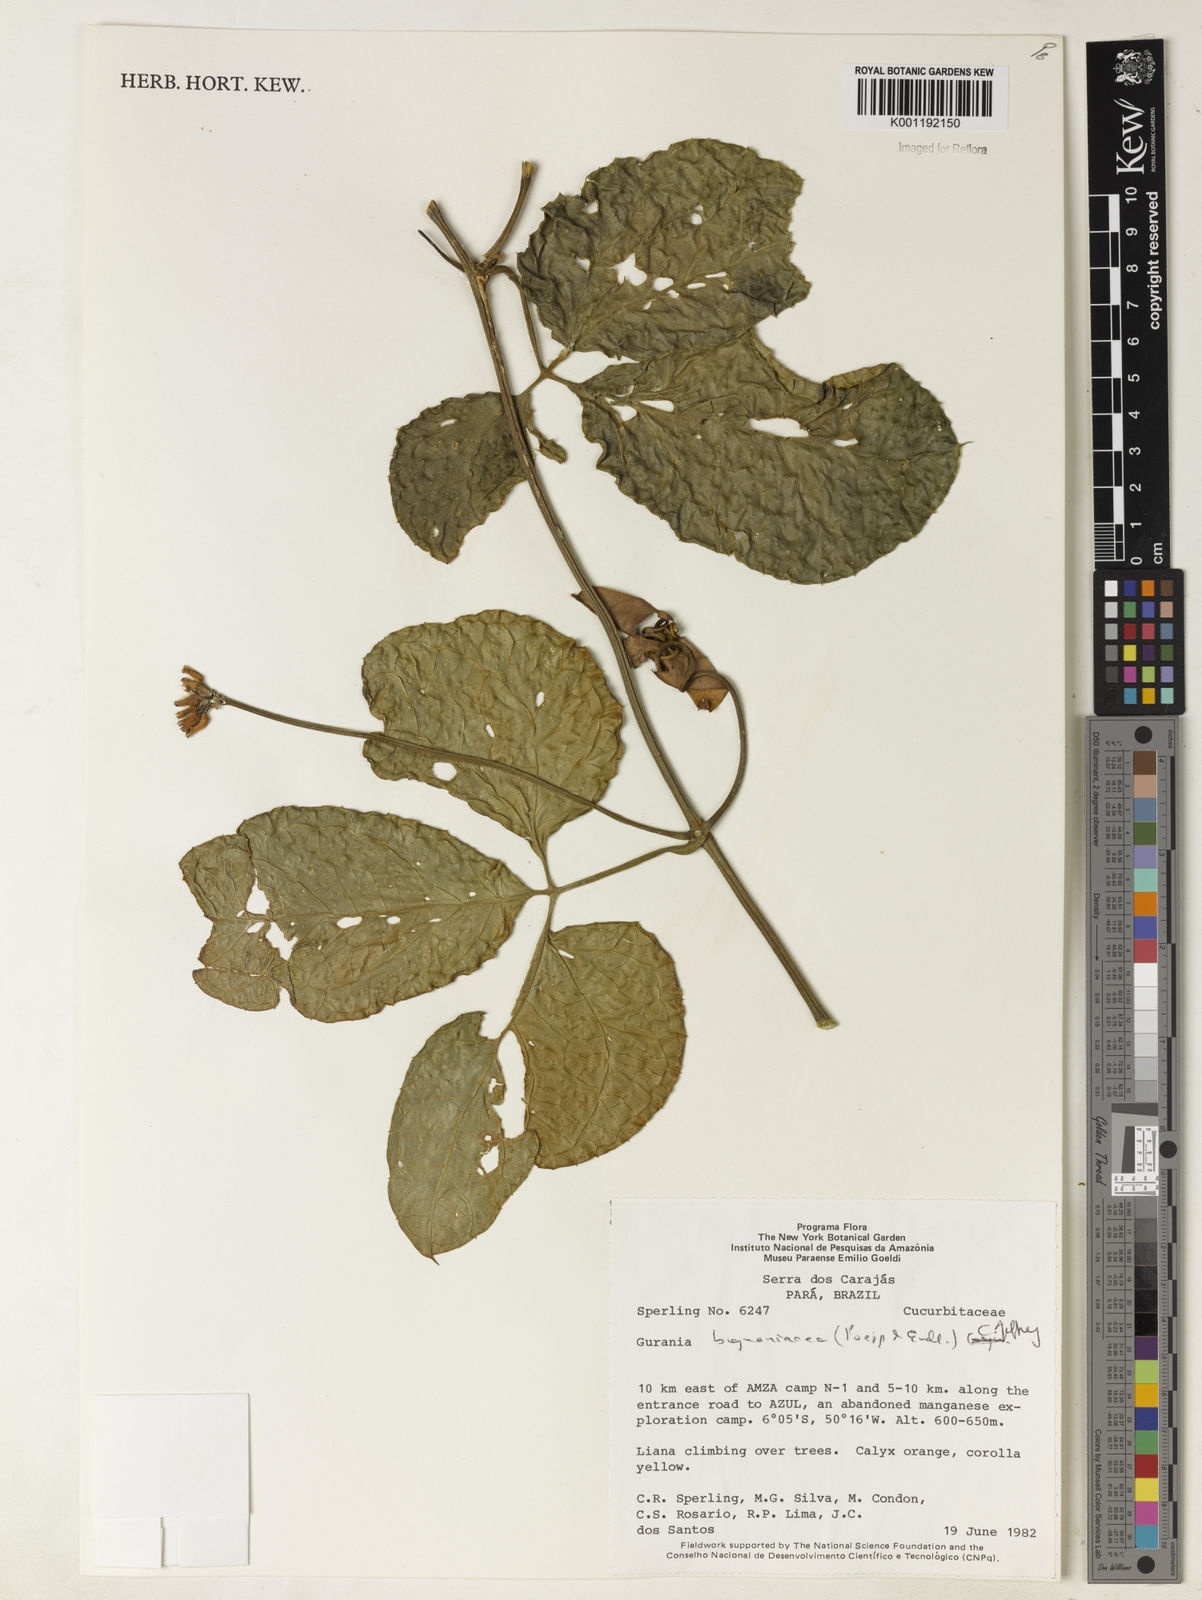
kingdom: Plantae
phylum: Tracheophyta
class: Magnoliopsida
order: Cucurbitales
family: Cucurbitaceae
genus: Gurania
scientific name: Gurania bignoniacea
